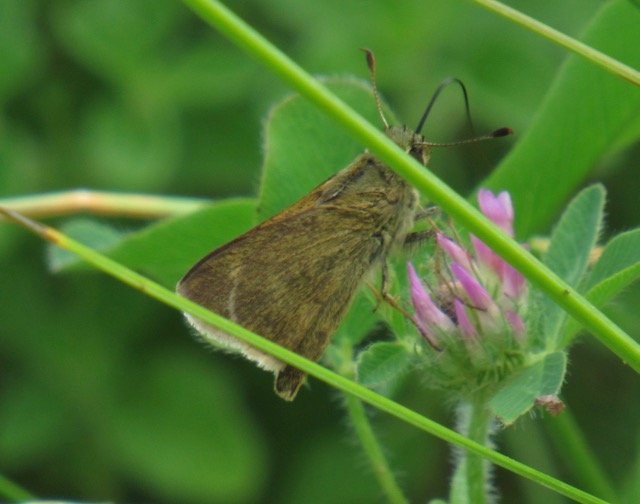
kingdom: Animalia
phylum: Arthropoda
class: Insecta
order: Lepidoptera
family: Hesperiidae
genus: Polites
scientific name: Polites egeremet
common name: Northern Broken-Dash
